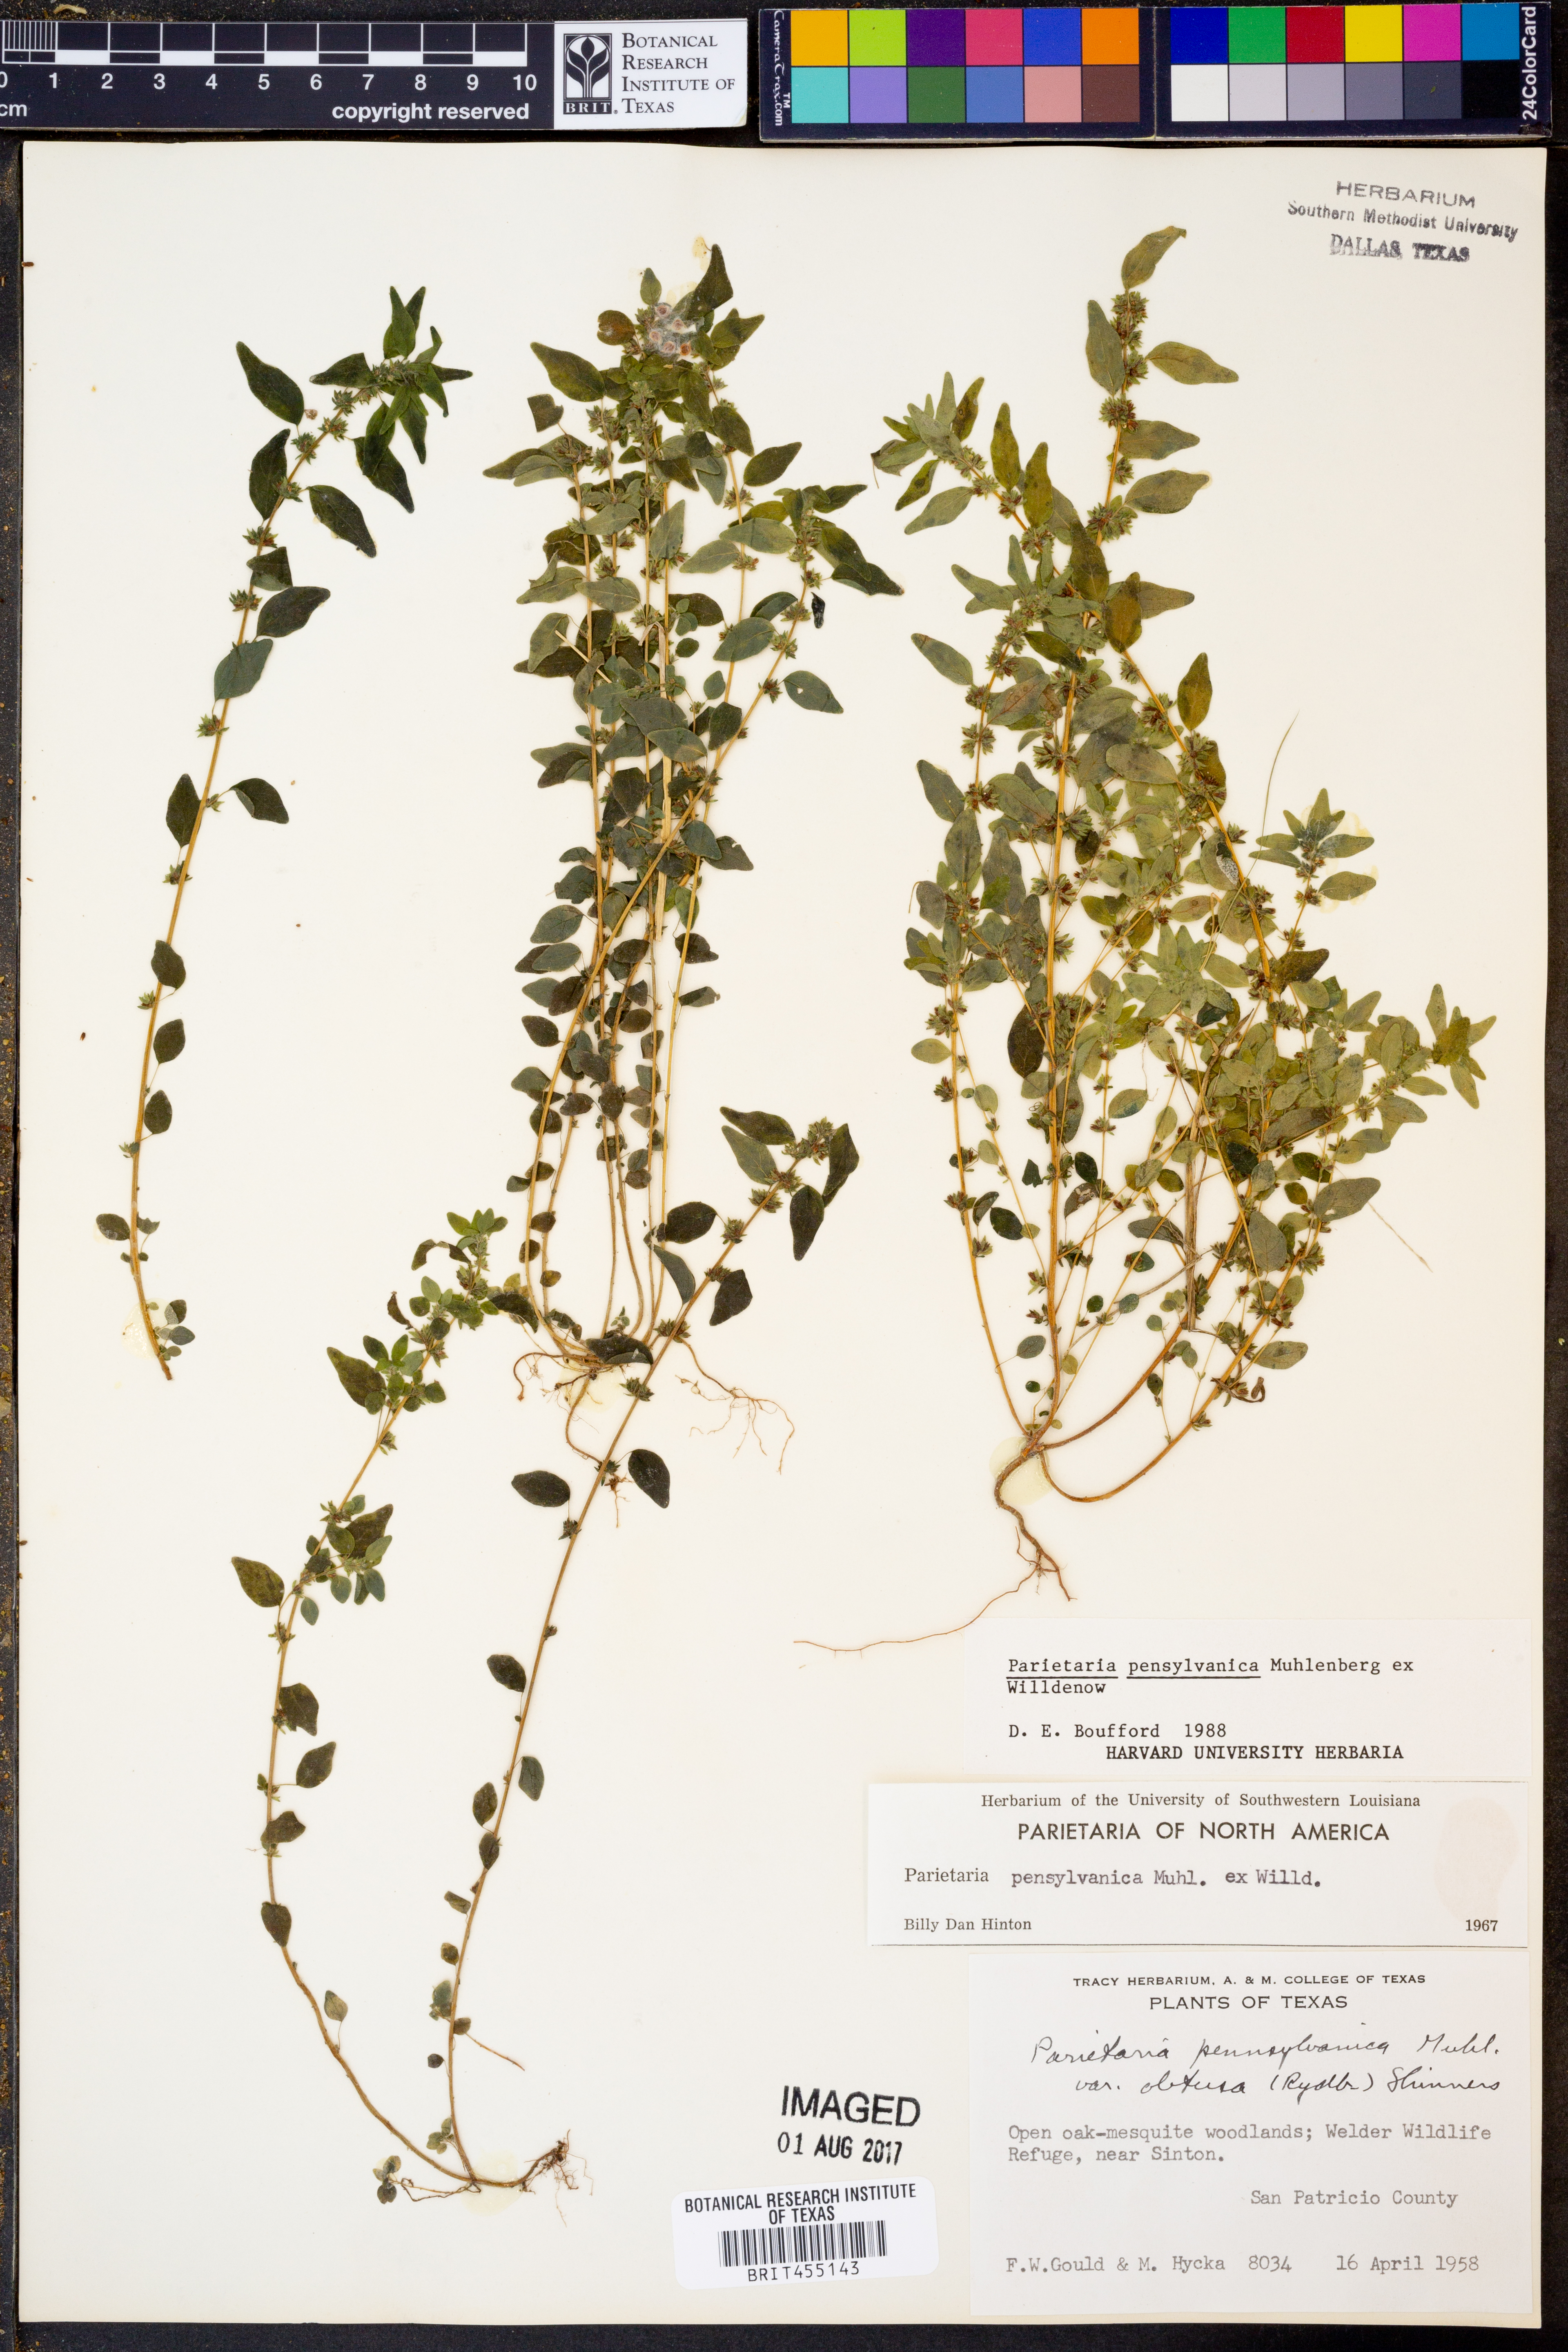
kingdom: Plantae
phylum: Tracheophyta
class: Magnoliopsida
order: Rosales
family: Urticaceae
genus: Parietaria
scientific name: Parietaria pensylvanica
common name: Pennsylvania pellitory
